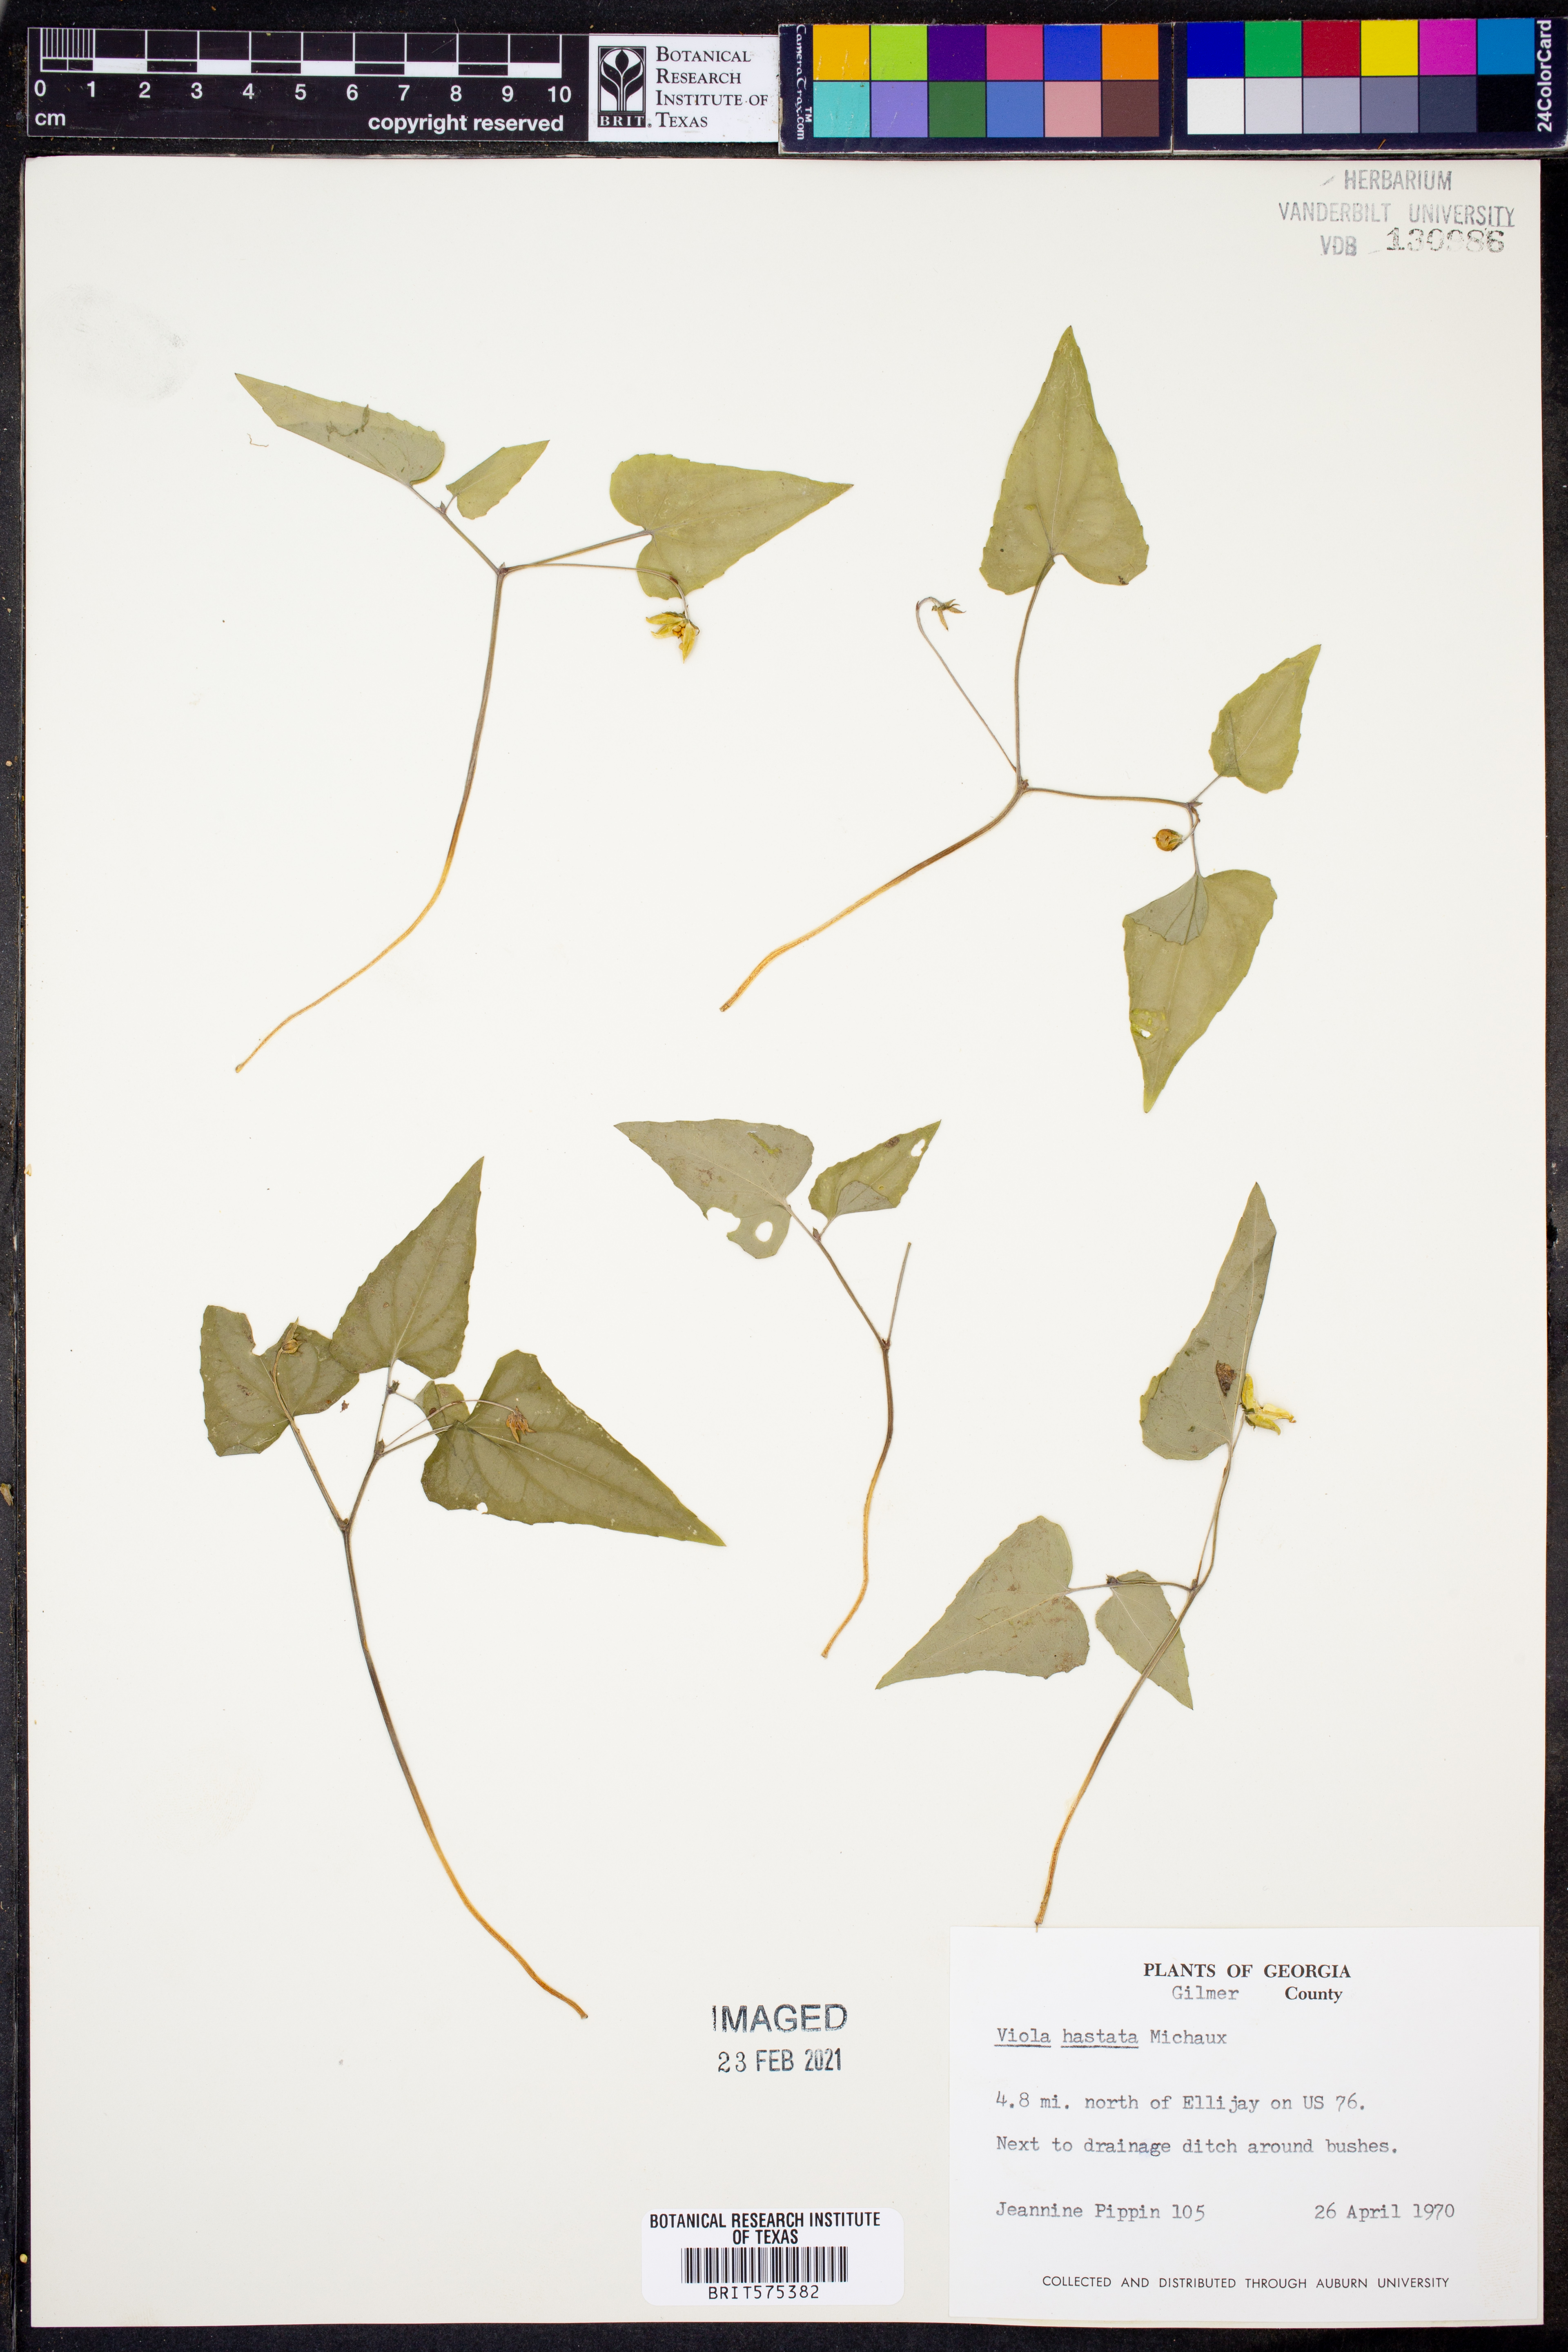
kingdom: Plantae
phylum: Tracheophyta
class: Magnoliopsida
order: Malpighiales
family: Violaceae
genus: Viola
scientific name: Viola hastata
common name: Spear-leaf violet
